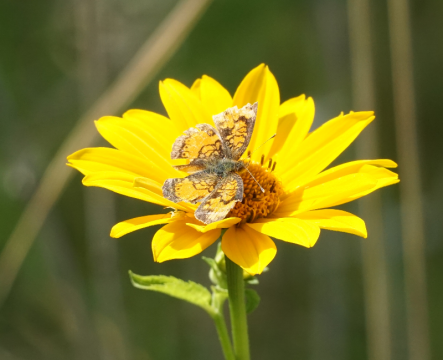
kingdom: Animalia
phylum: Arthropoda
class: Insecta
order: Lepidoptera
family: Nymphalidae
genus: Phyciodes
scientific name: Phyciodes tharos
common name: Northern Crescent
